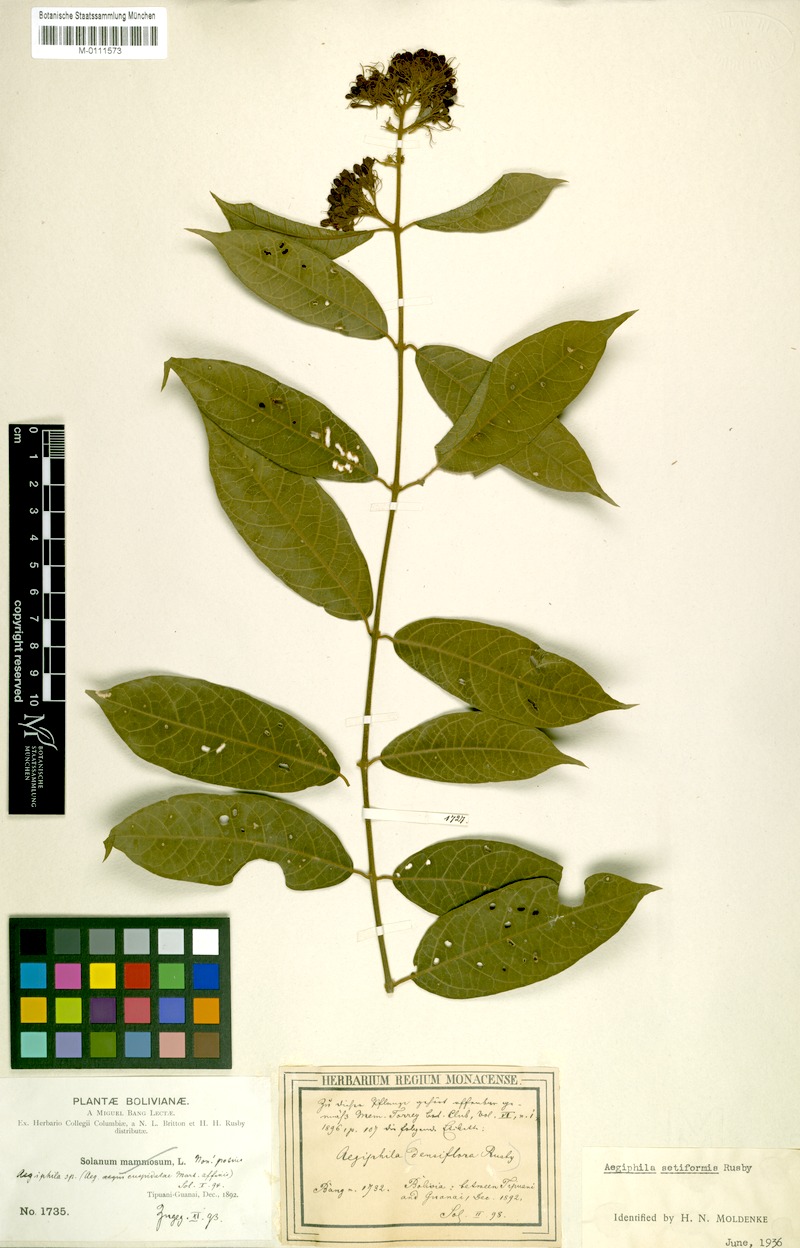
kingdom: Plantae
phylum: Tracheophyta
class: Magnoliopsida
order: Lamiales
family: Lamiaceae
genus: Aegiphila
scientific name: Aegiphila vitelliniflora
